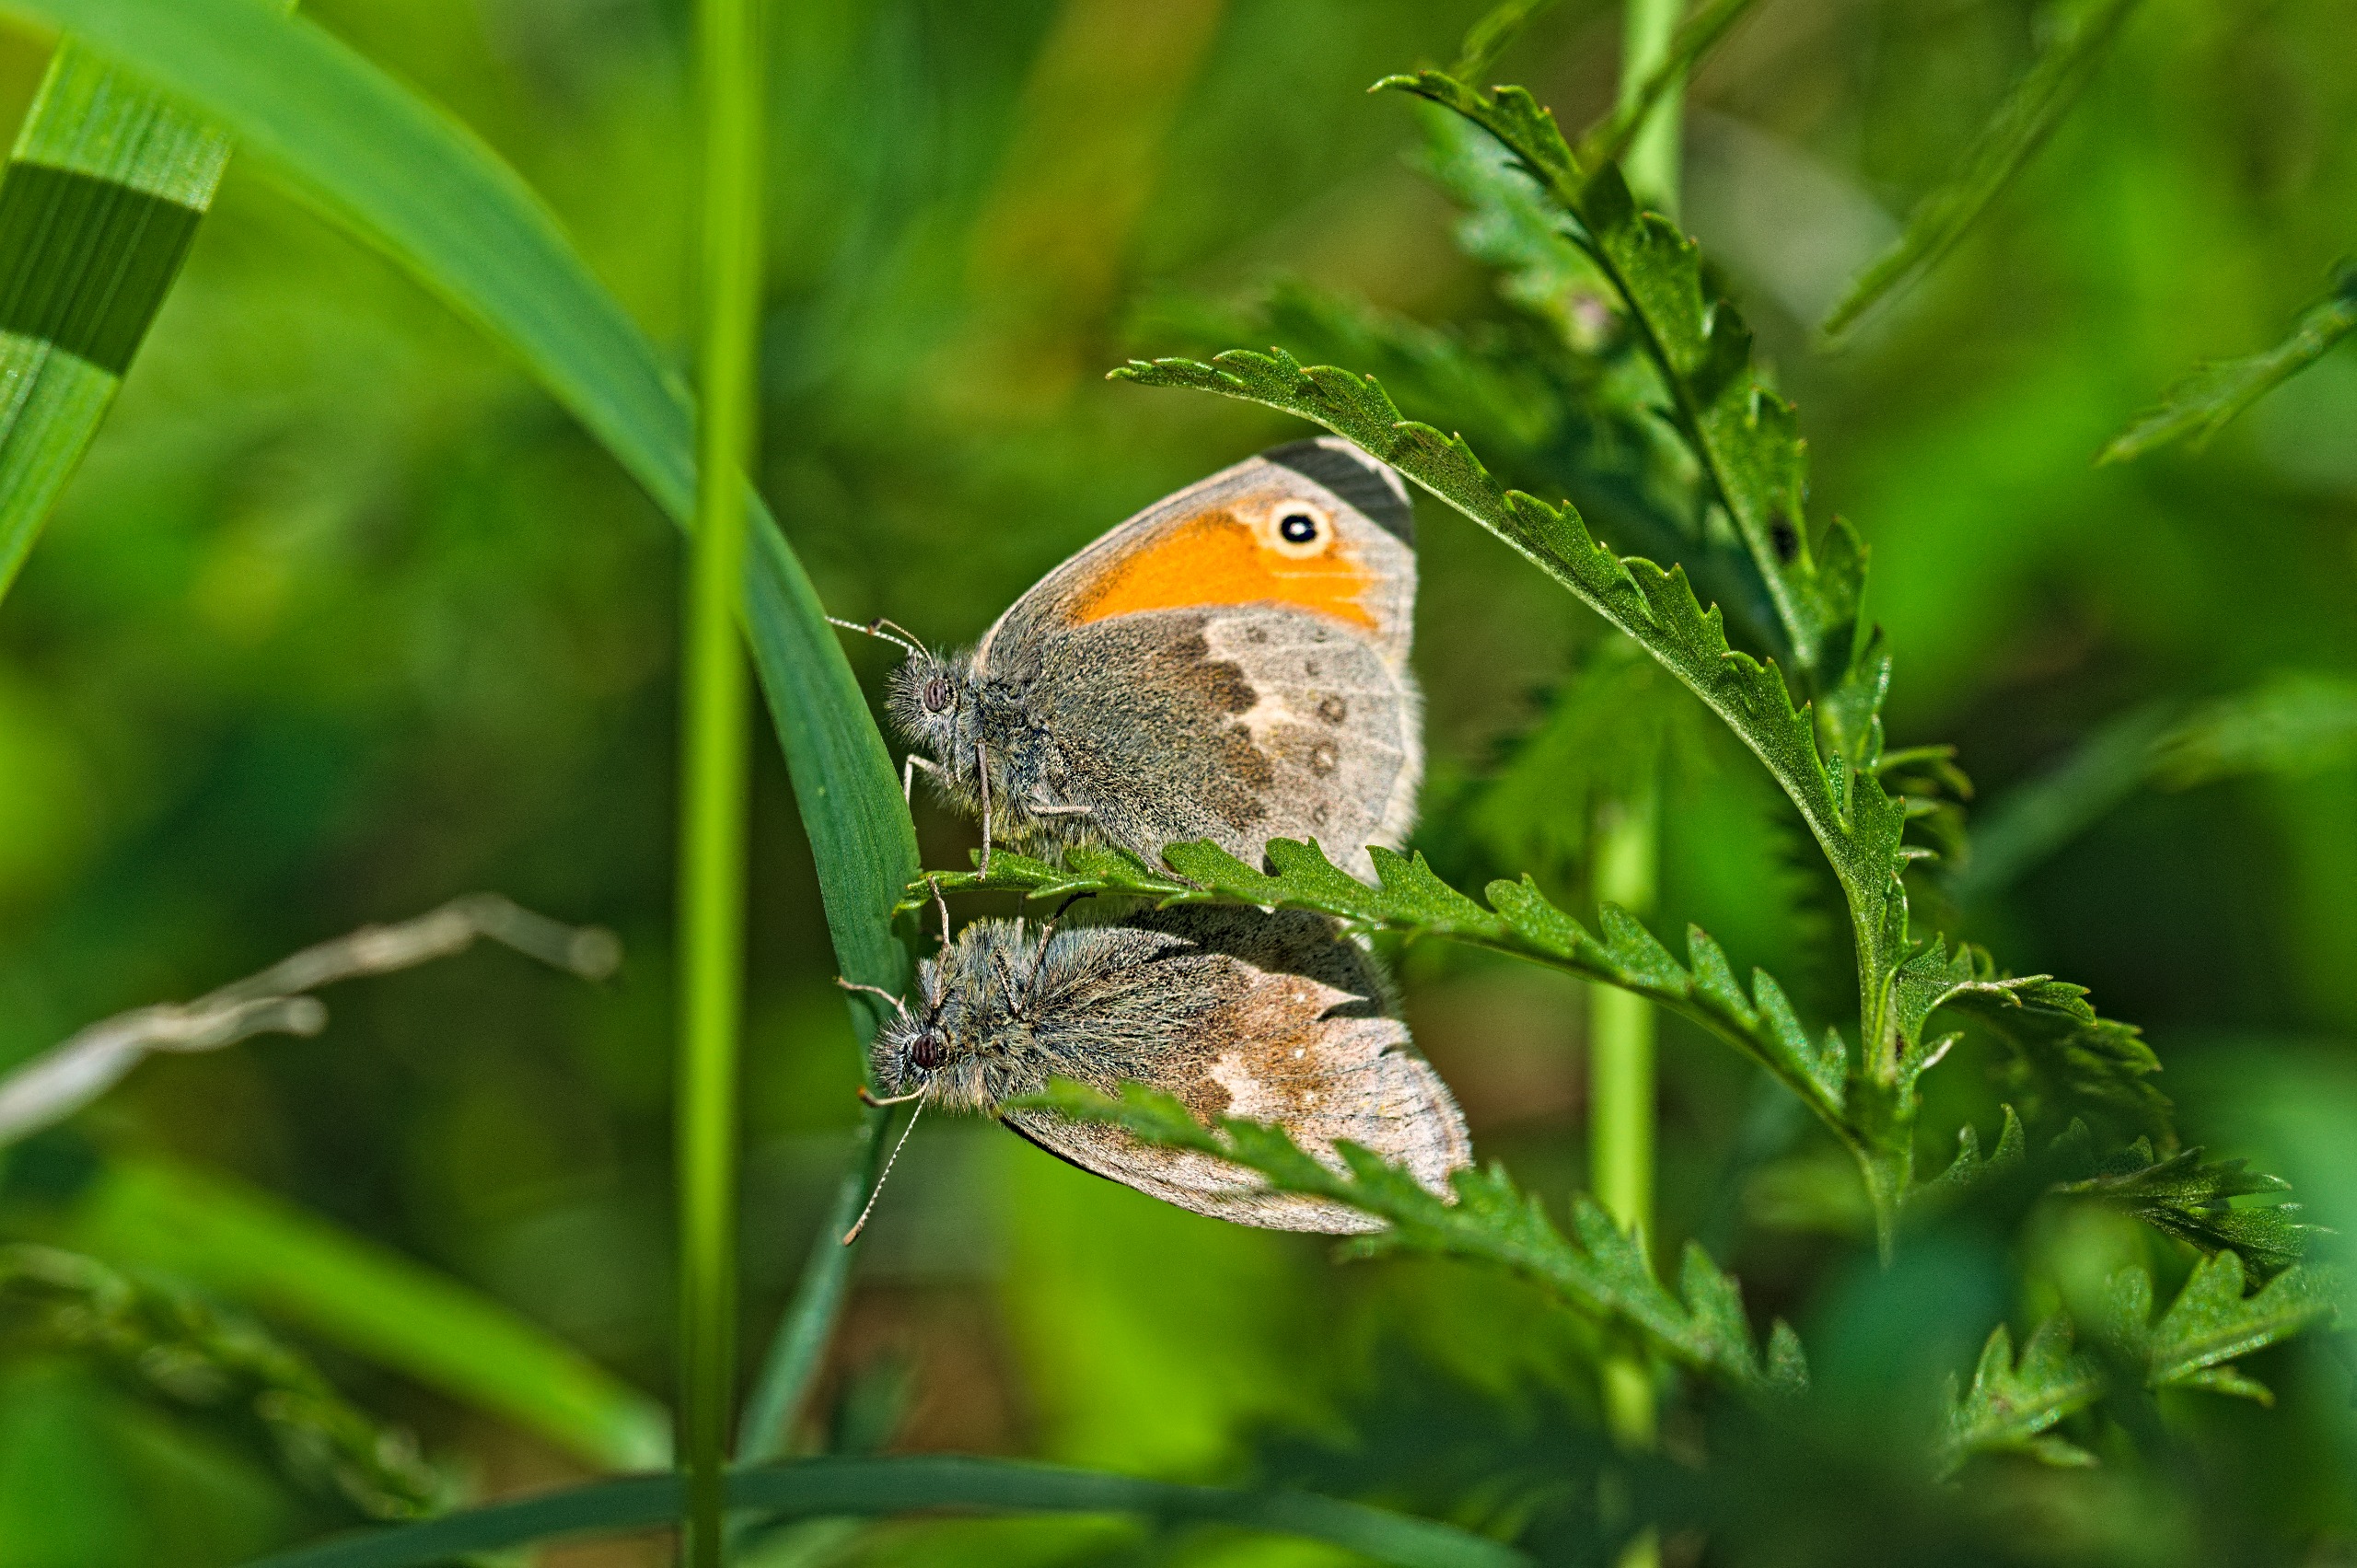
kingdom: Animalia
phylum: Arthropoda
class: Insecta
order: Lepidoptera
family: Nymphalidae
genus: Coenonympha
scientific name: Coenonympha pamphilus
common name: Okkergul randøje
